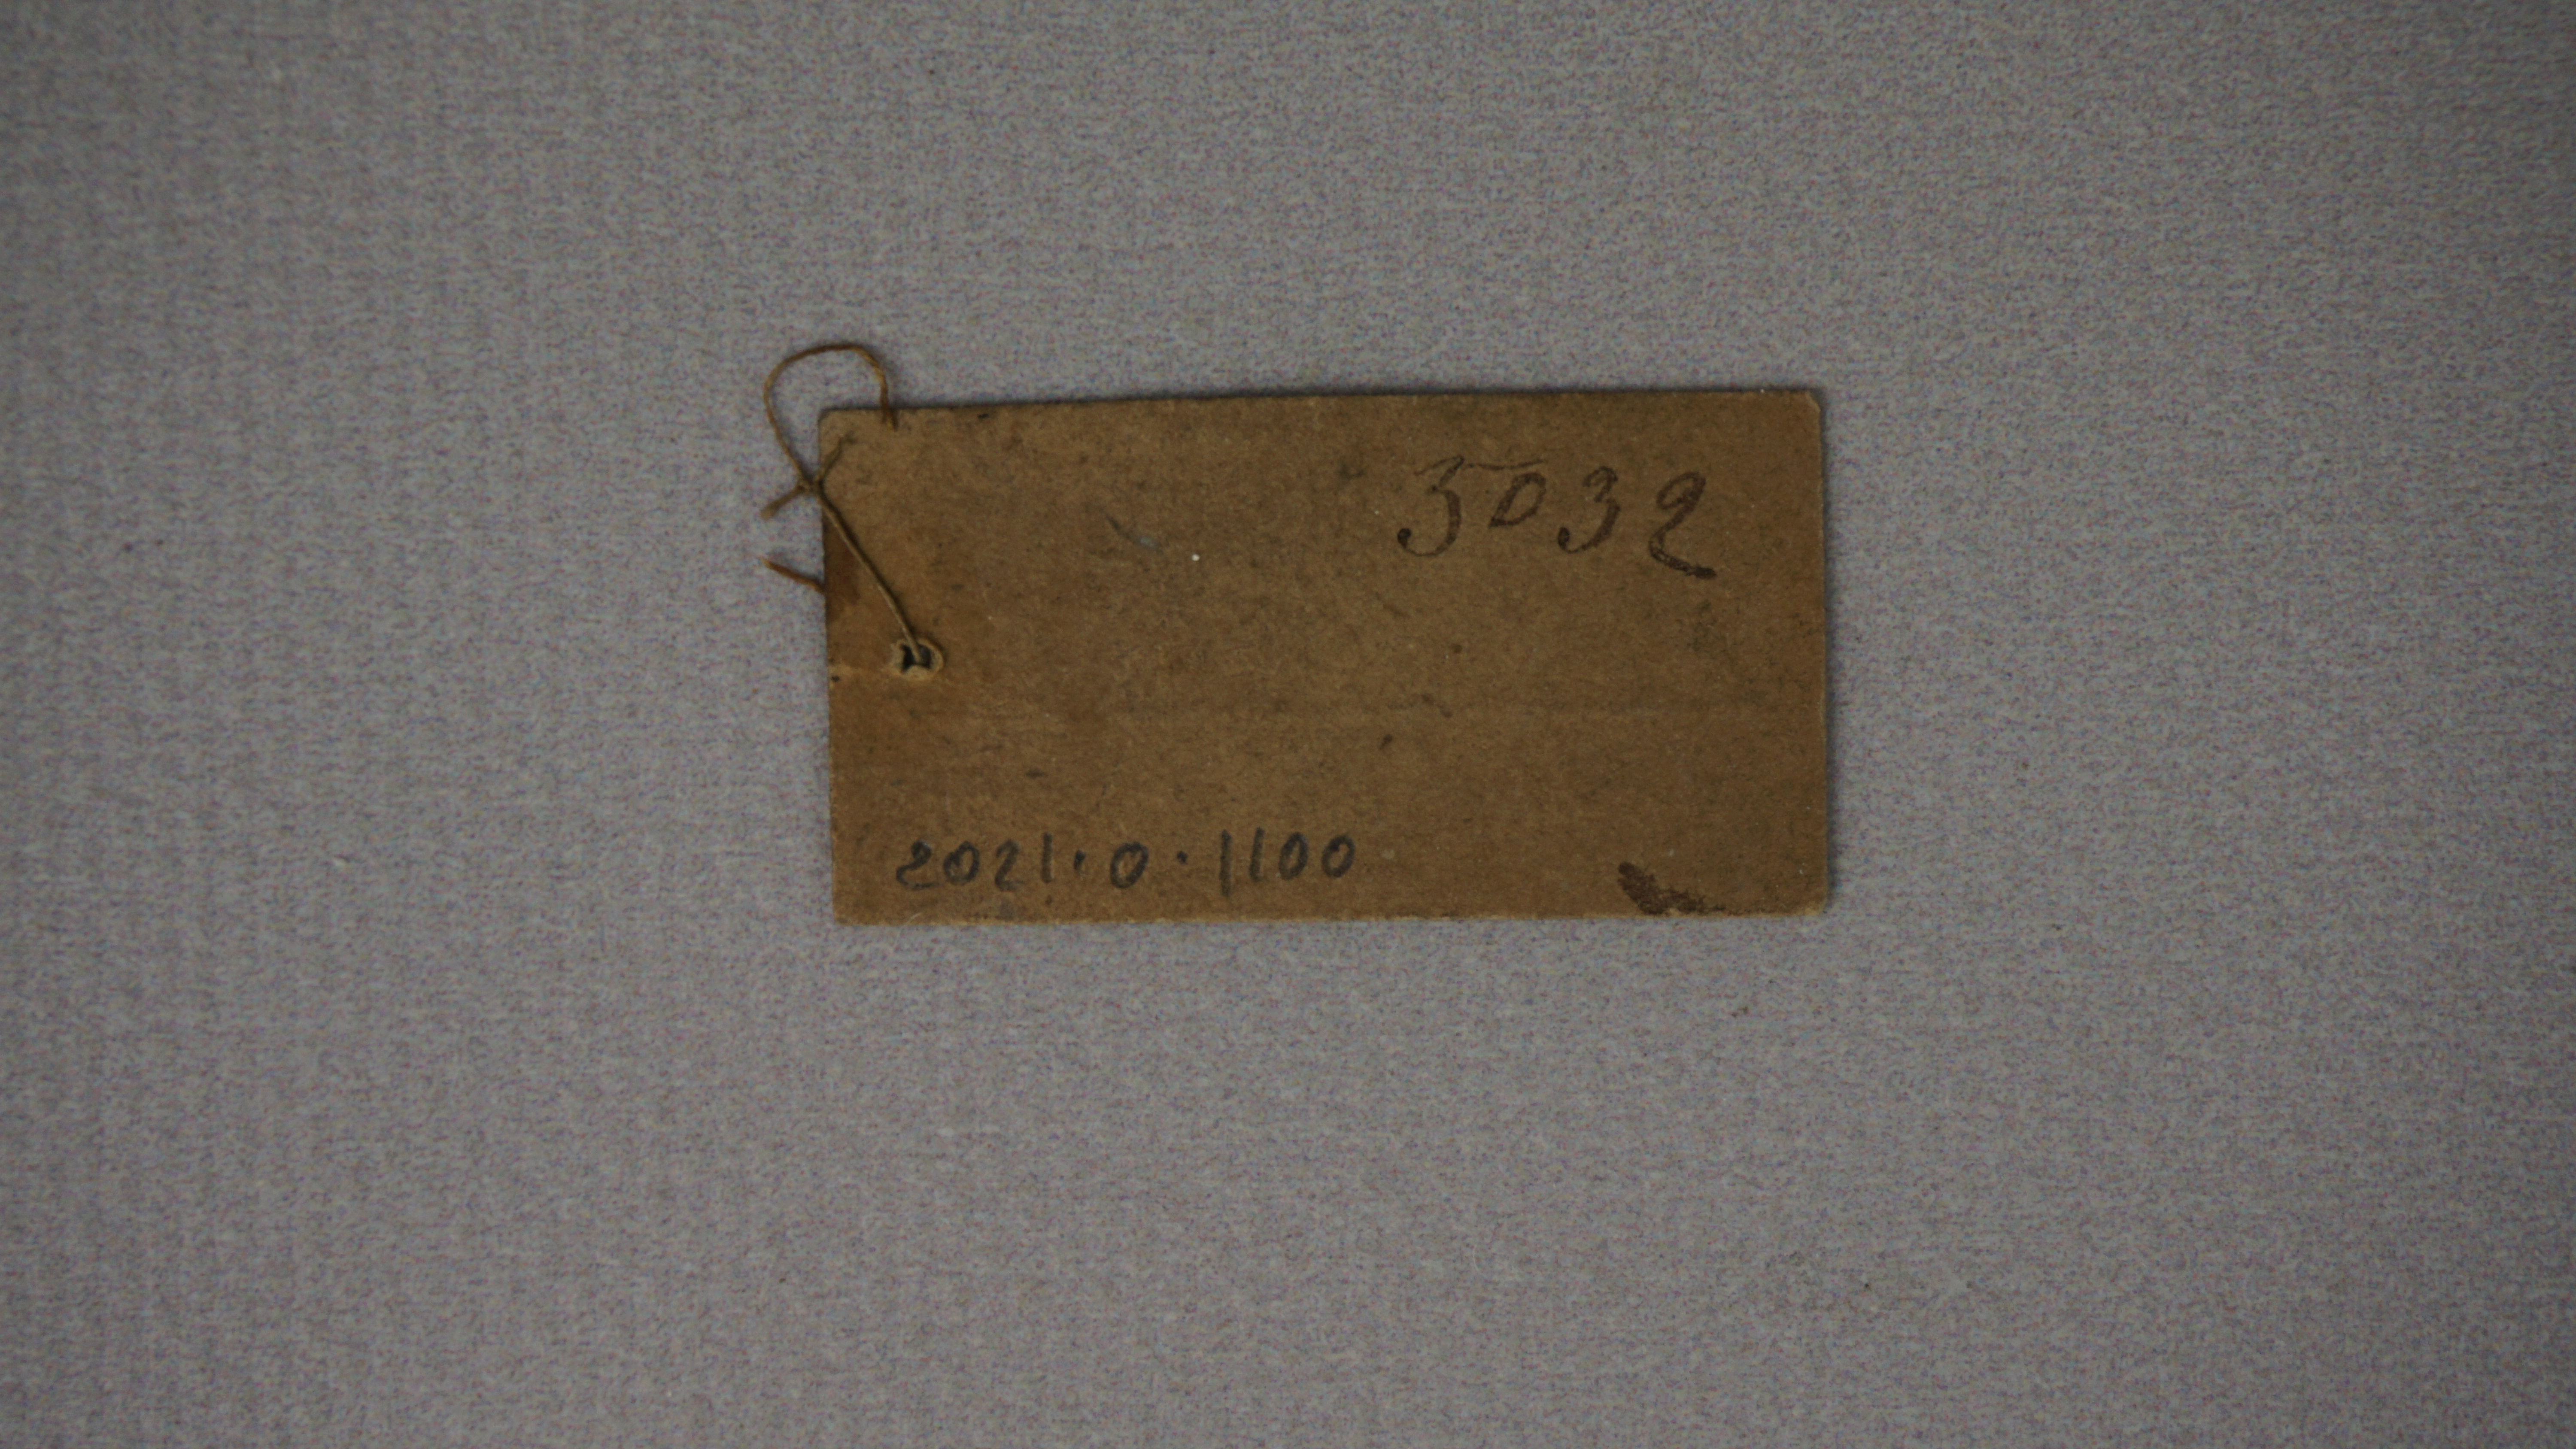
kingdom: Animalia
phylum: Chordata
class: Aves
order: Coraciiformes
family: Meropidae
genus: Merops
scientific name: Merops viridissimus
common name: African green bee-eater
